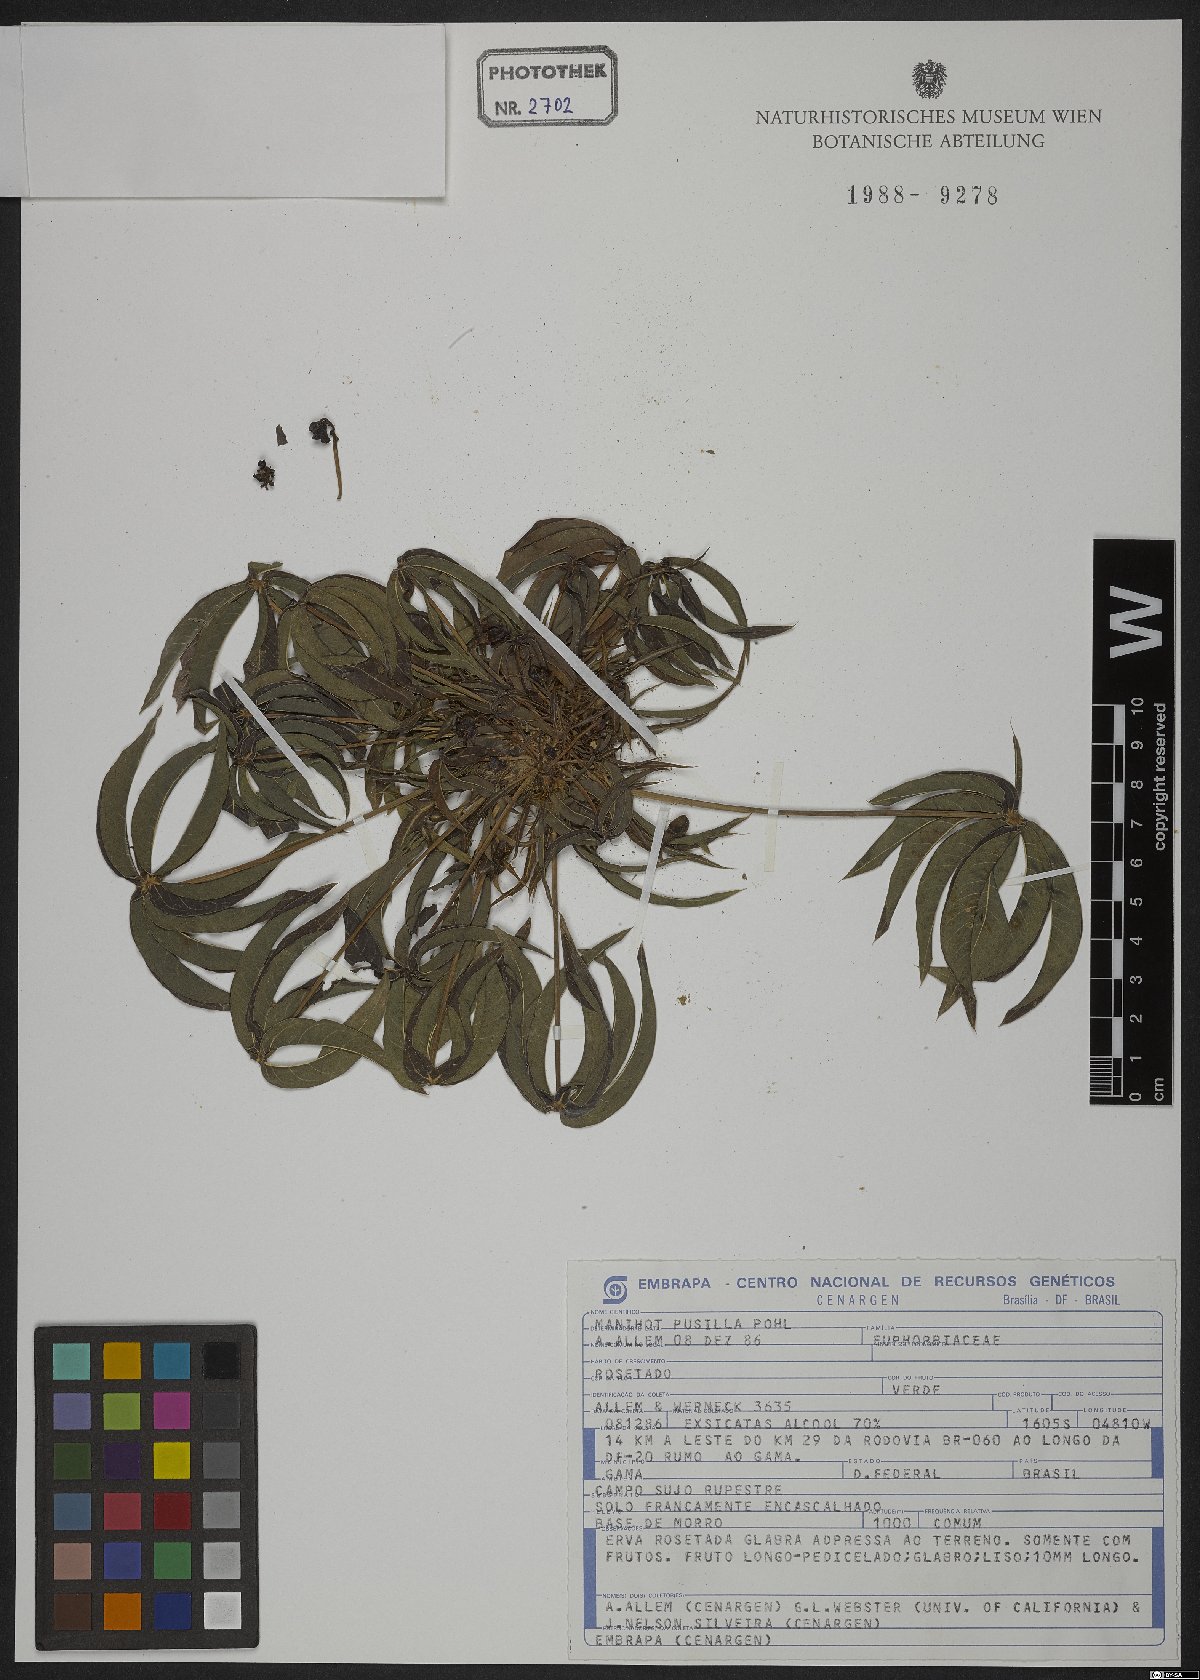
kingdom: Plantae
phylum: Tracheophyta
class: Magnoliopsida
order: Malpighiales
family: Euphorbiaceae
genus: Manihot
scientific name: Manihot pusilla
